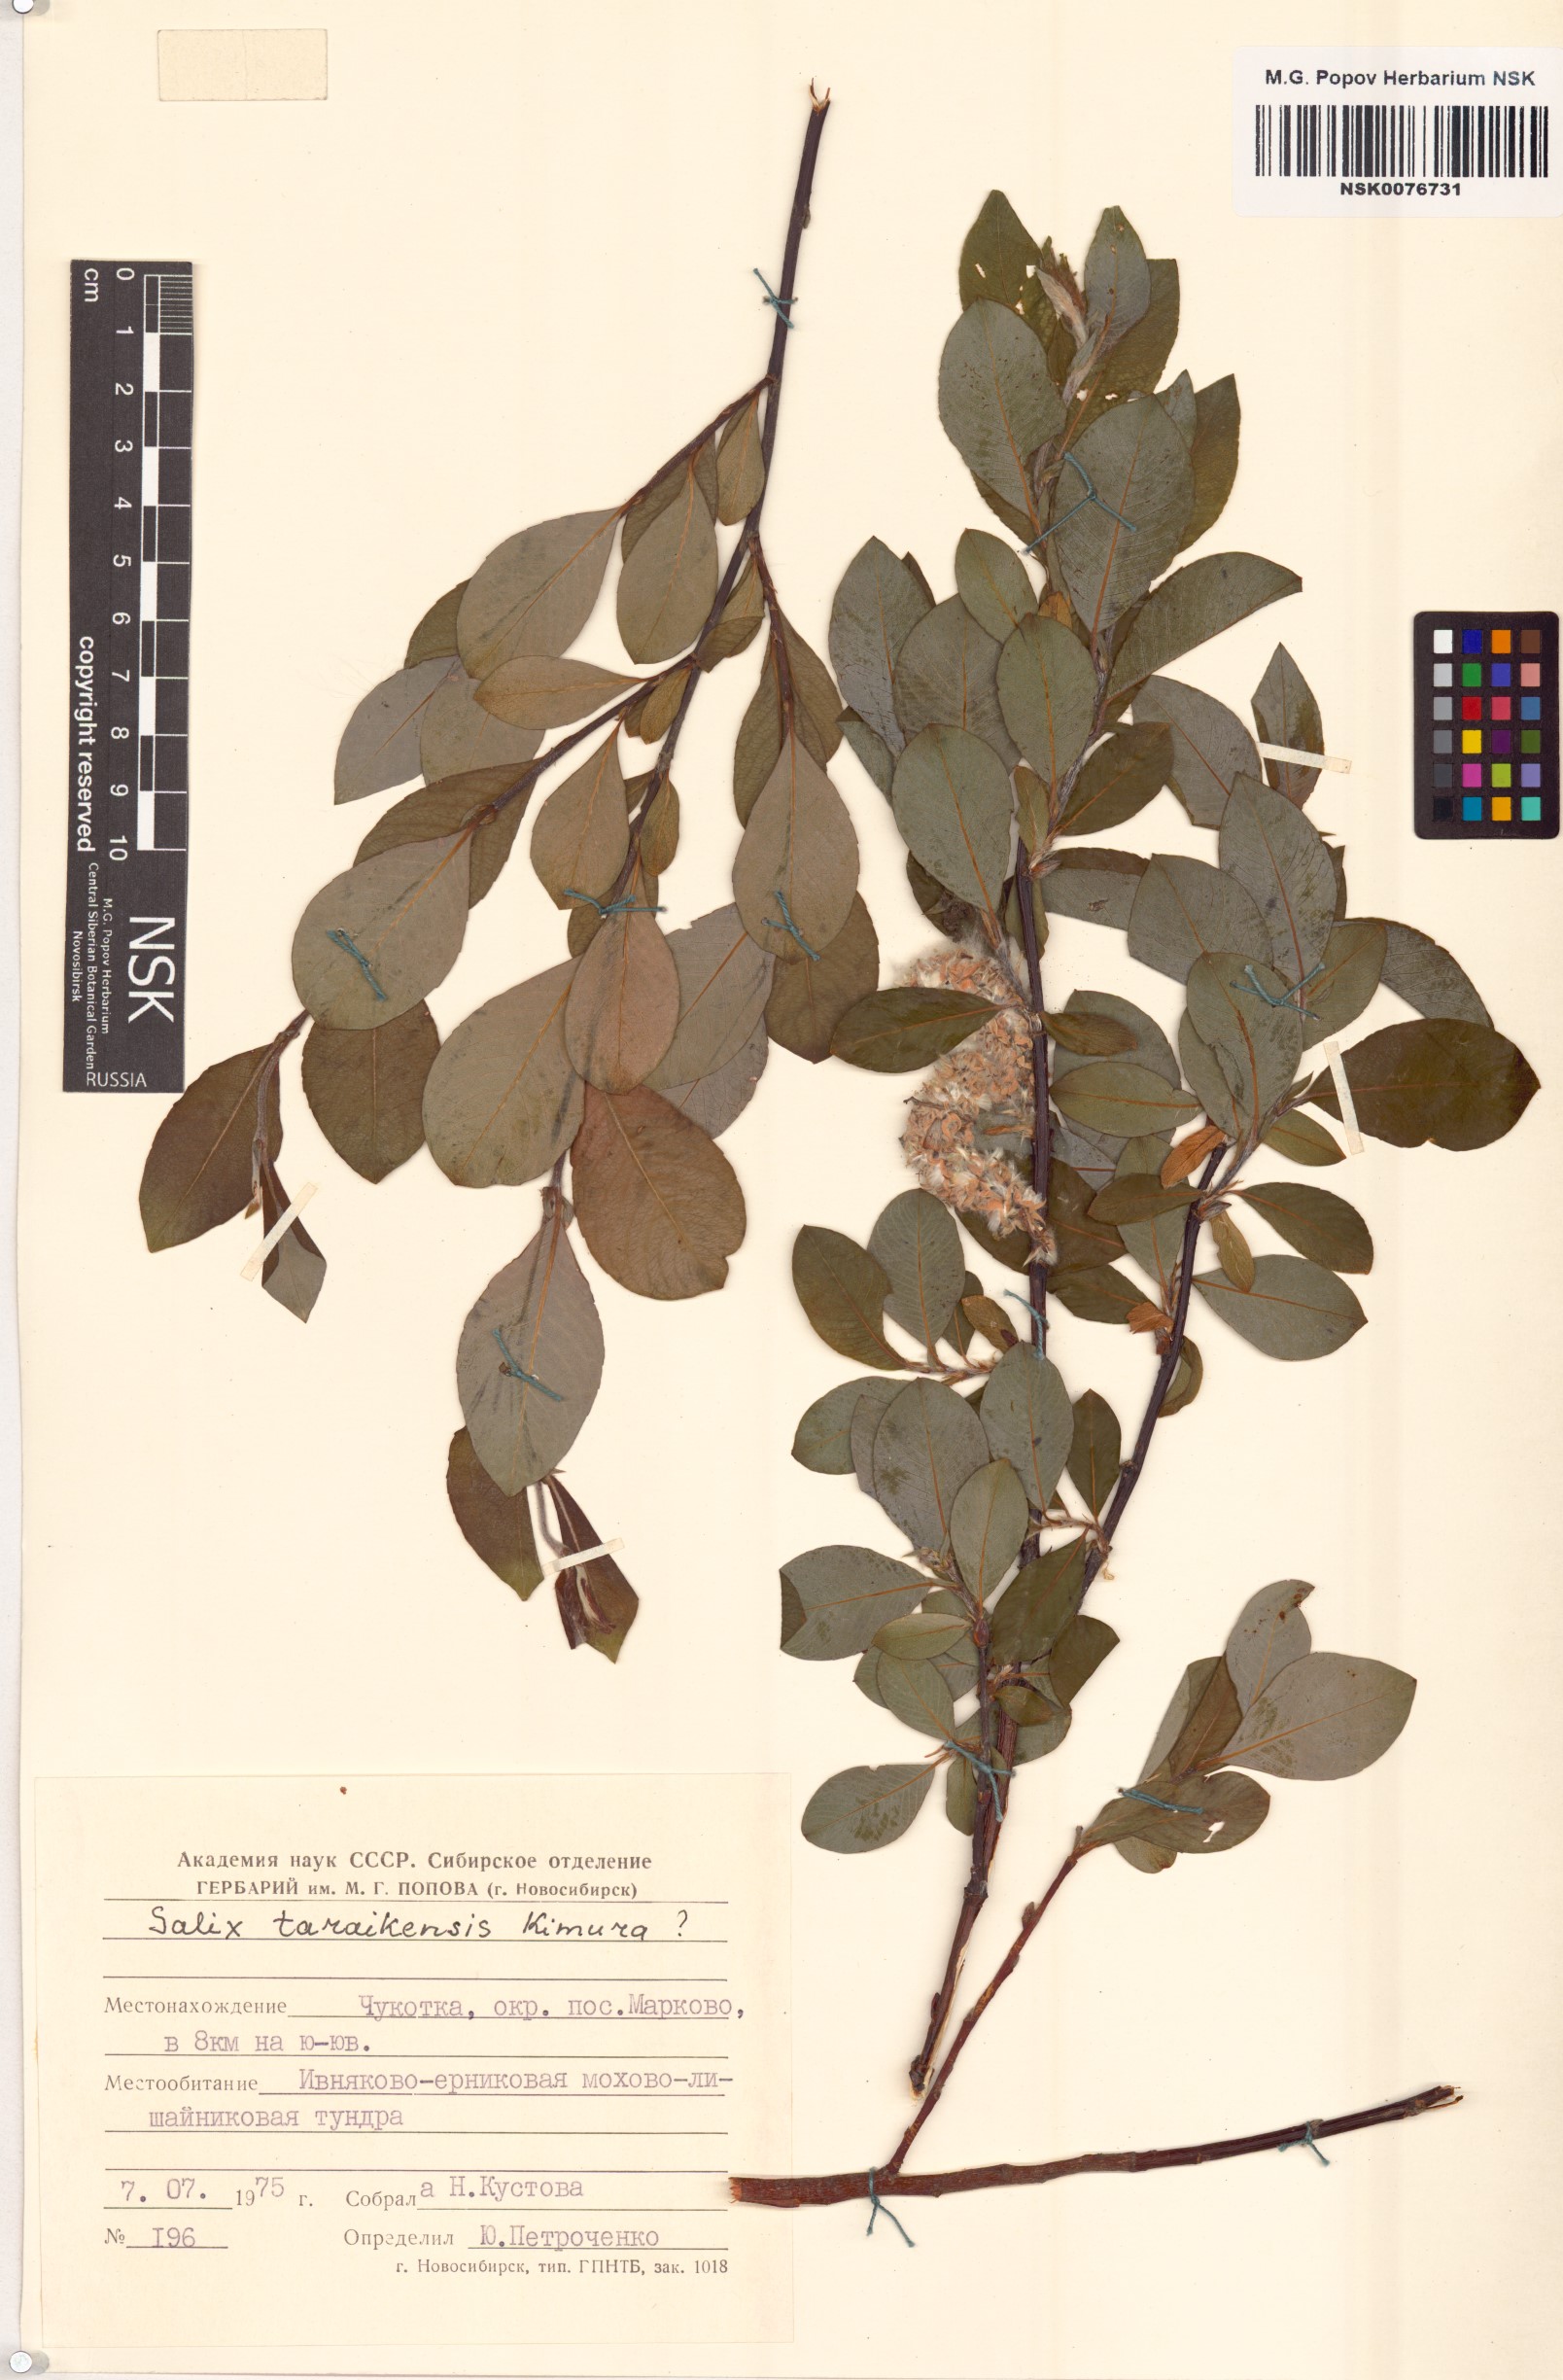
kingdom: Plantae
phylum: Tracheophyta
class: Magnoliopsida
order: Malpighiales
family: Salicaceae
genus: Salix
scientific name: Salix taraikensis
